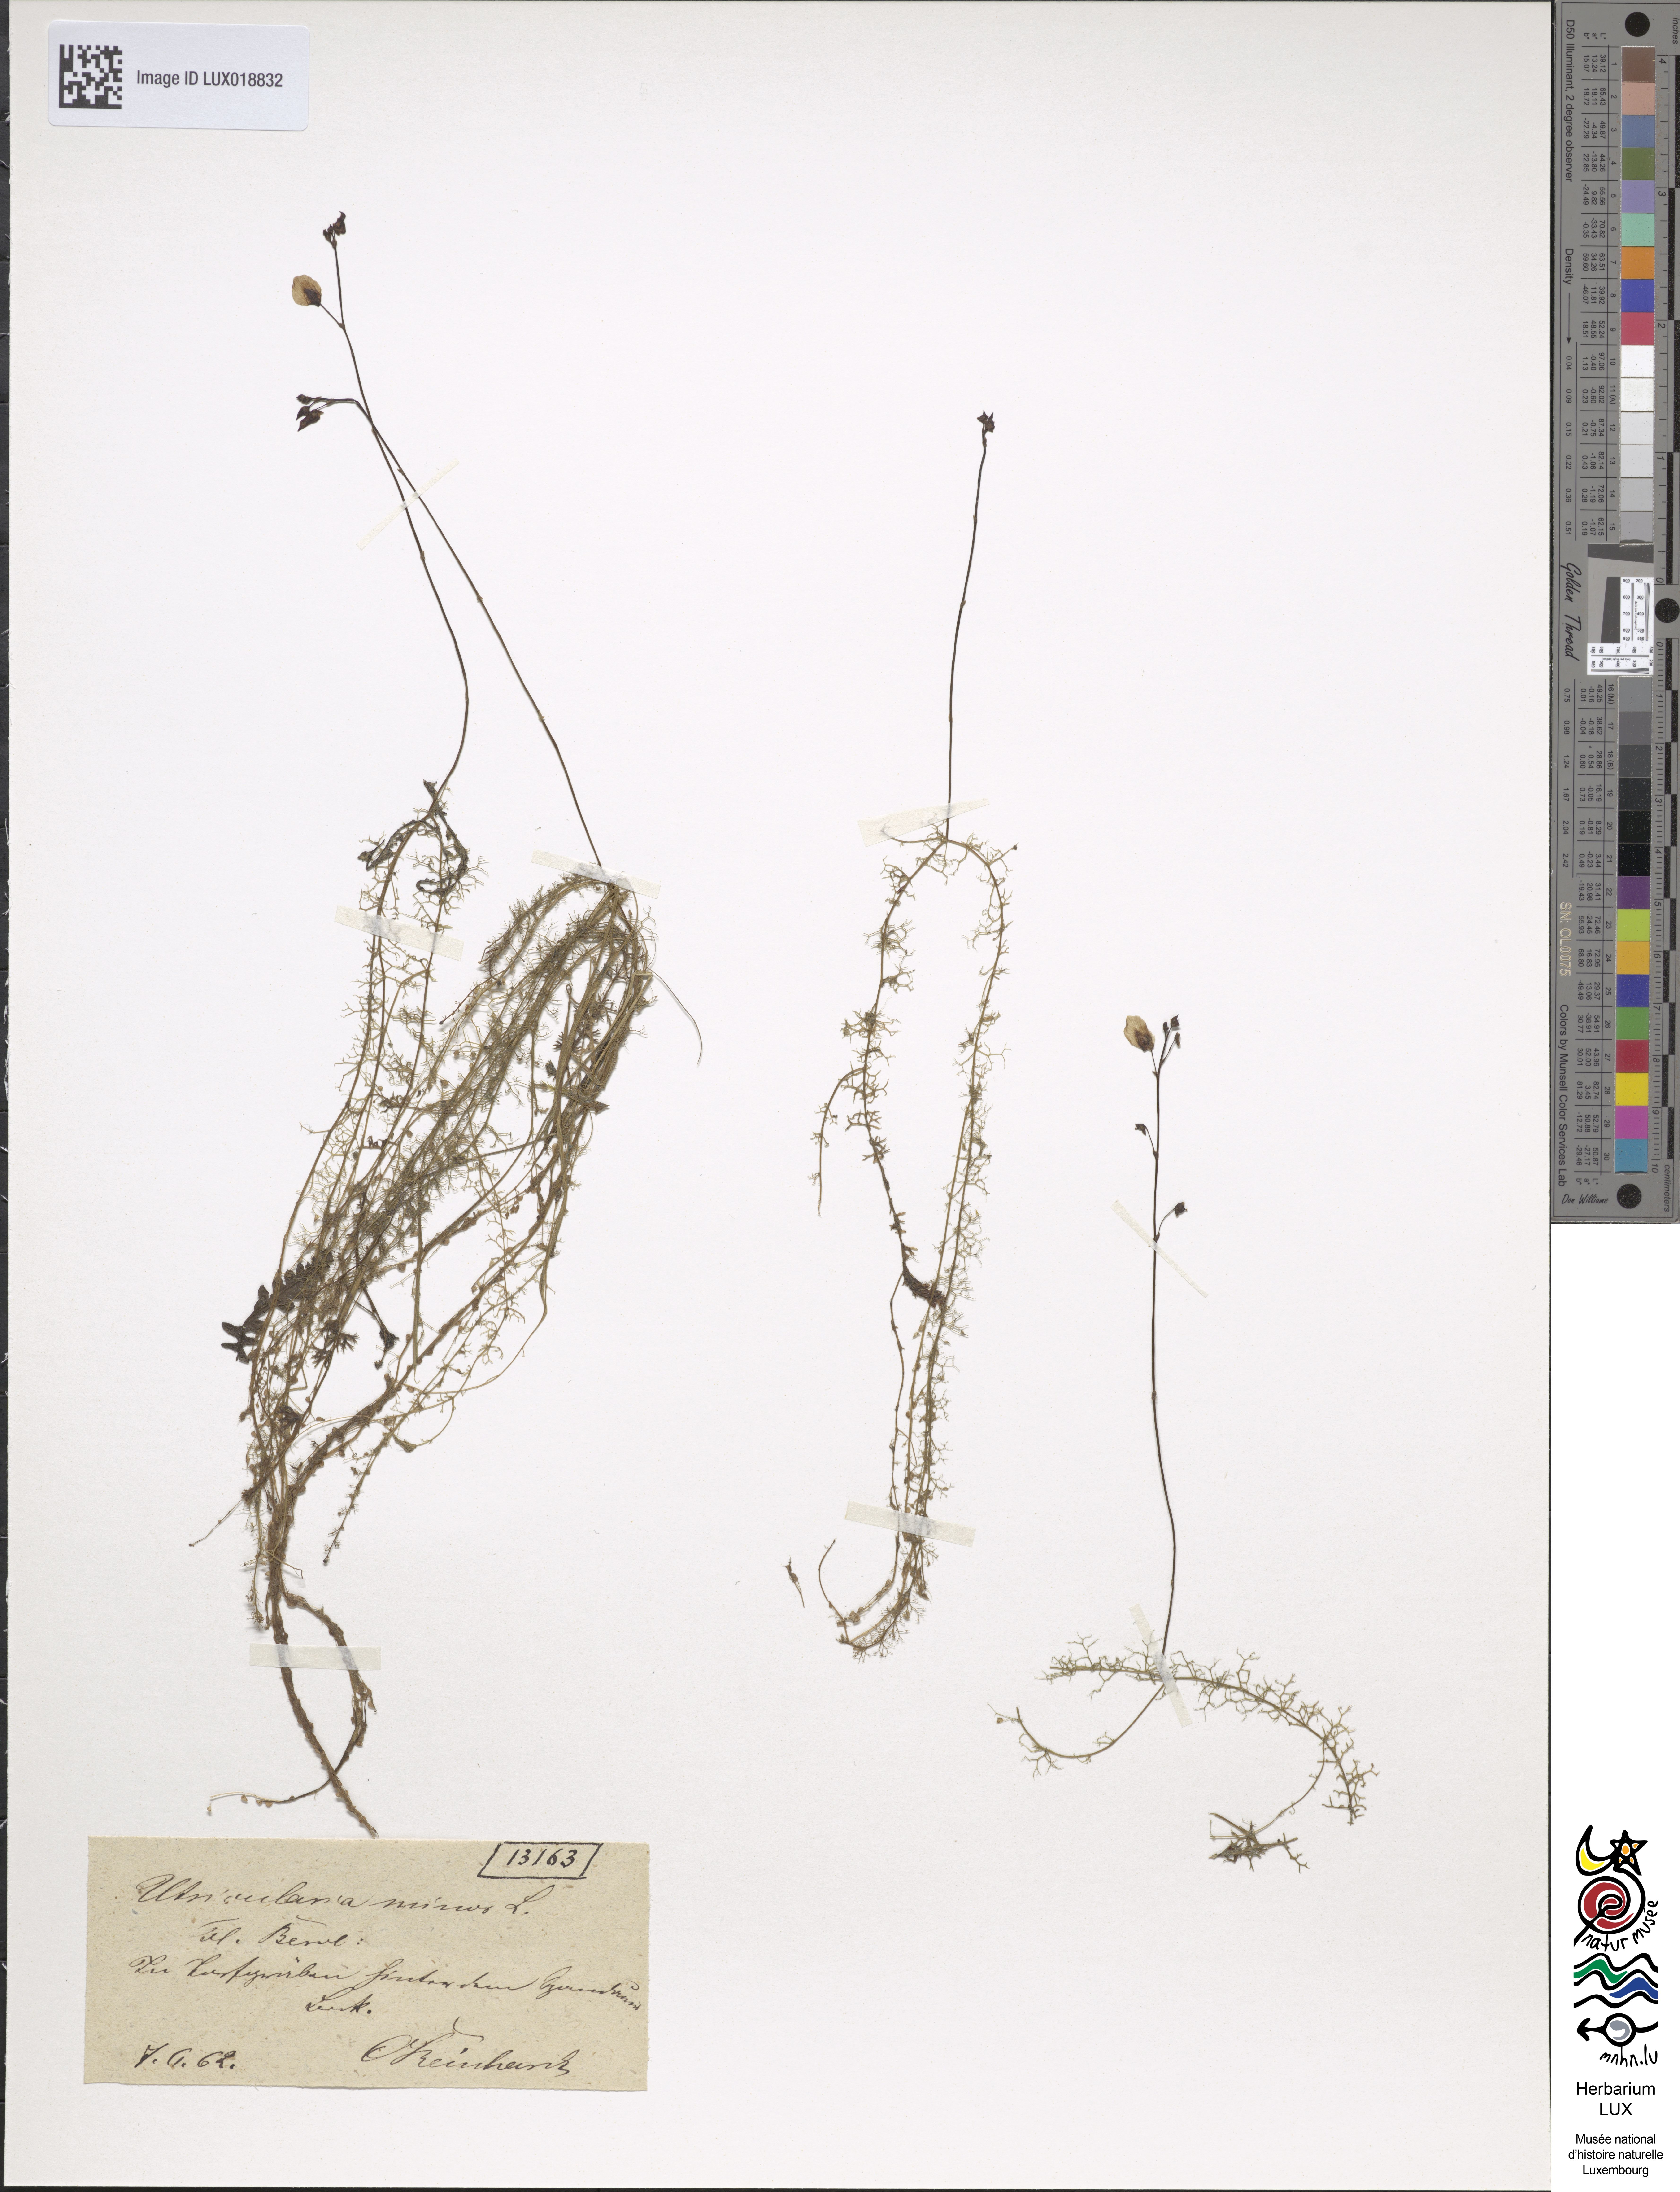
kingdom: Plantae
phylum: Tracheophyta
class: Magnoliopsida
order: Lamiales
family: Lentibulariaceae
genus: Utricularia
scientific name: Utricularia minor
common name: Lesser bladderwort
